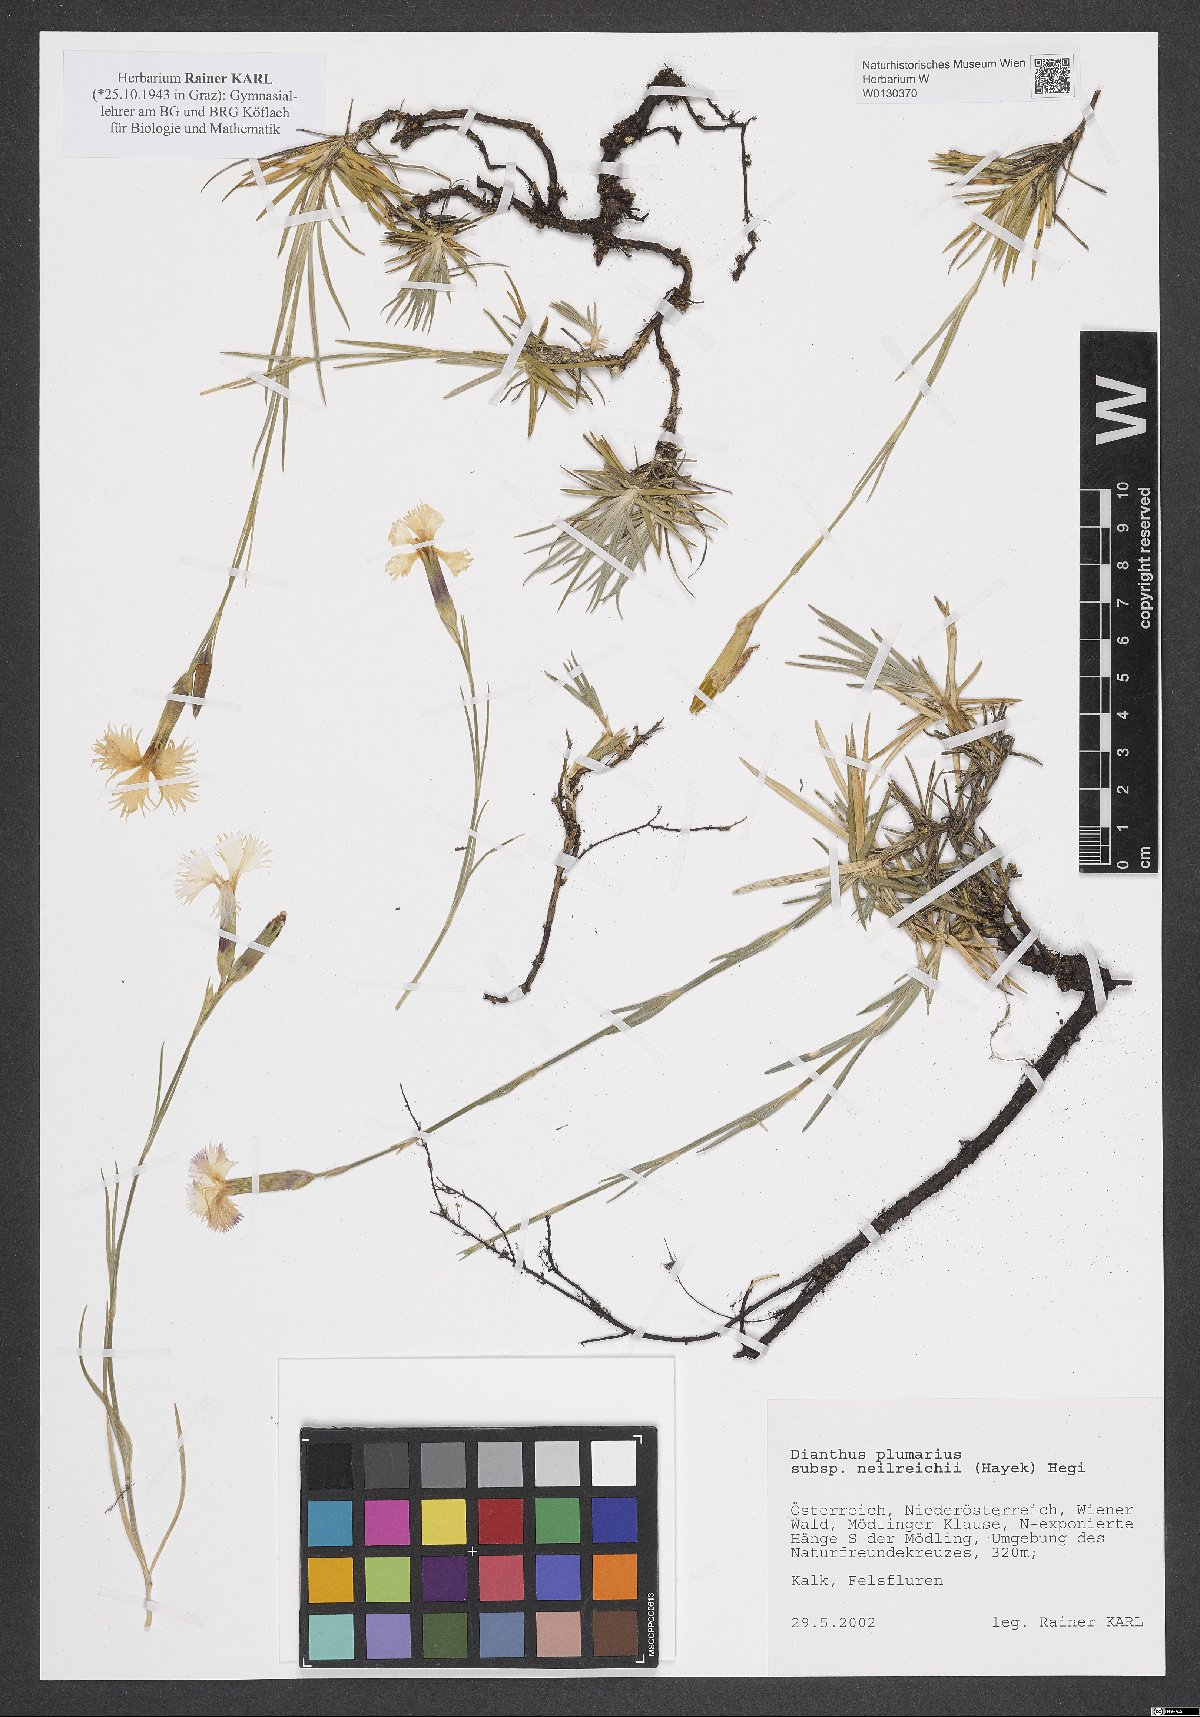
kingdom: Plantae
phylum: Tracheophyta
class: Magnoliopsida
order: Brassicales
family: Brassicaceae
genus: Draba
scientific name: Draba verna
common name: Spring draba
